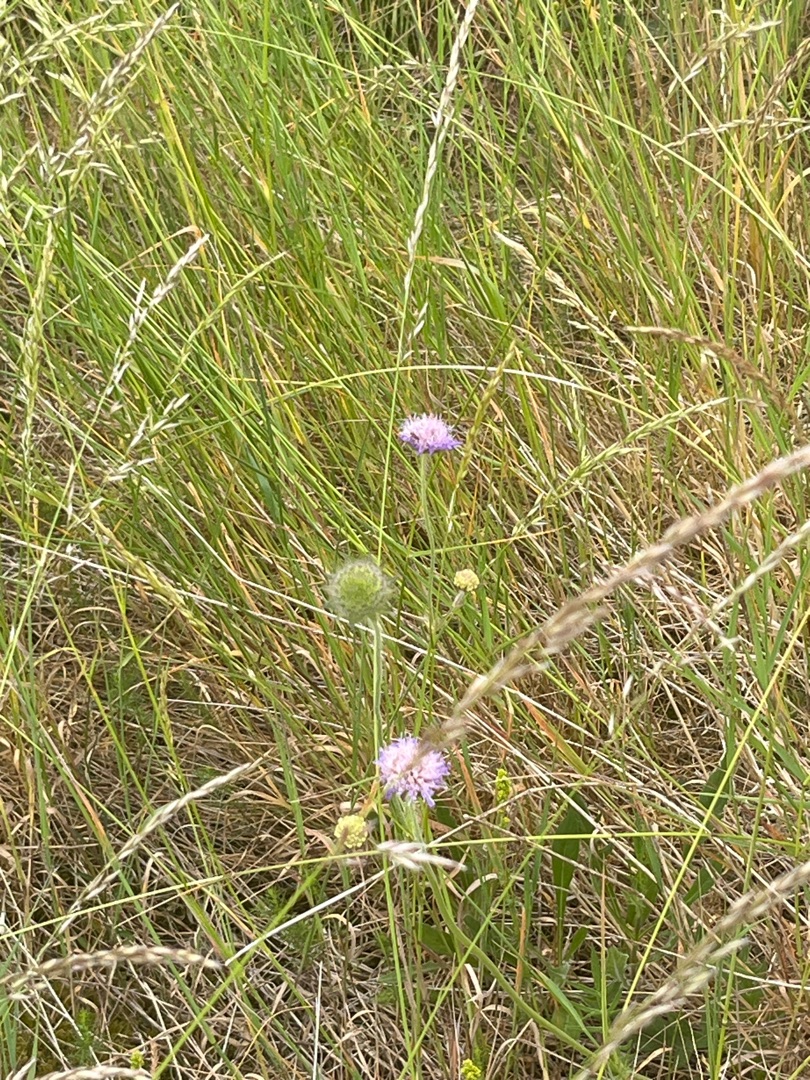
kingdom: Plantae
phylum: Tracheophyta
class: Magnoliopsida
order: Dipsacales
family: Caprifoliaceae
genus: Knautia
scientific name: Knautia arvensis
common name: Blåhat
